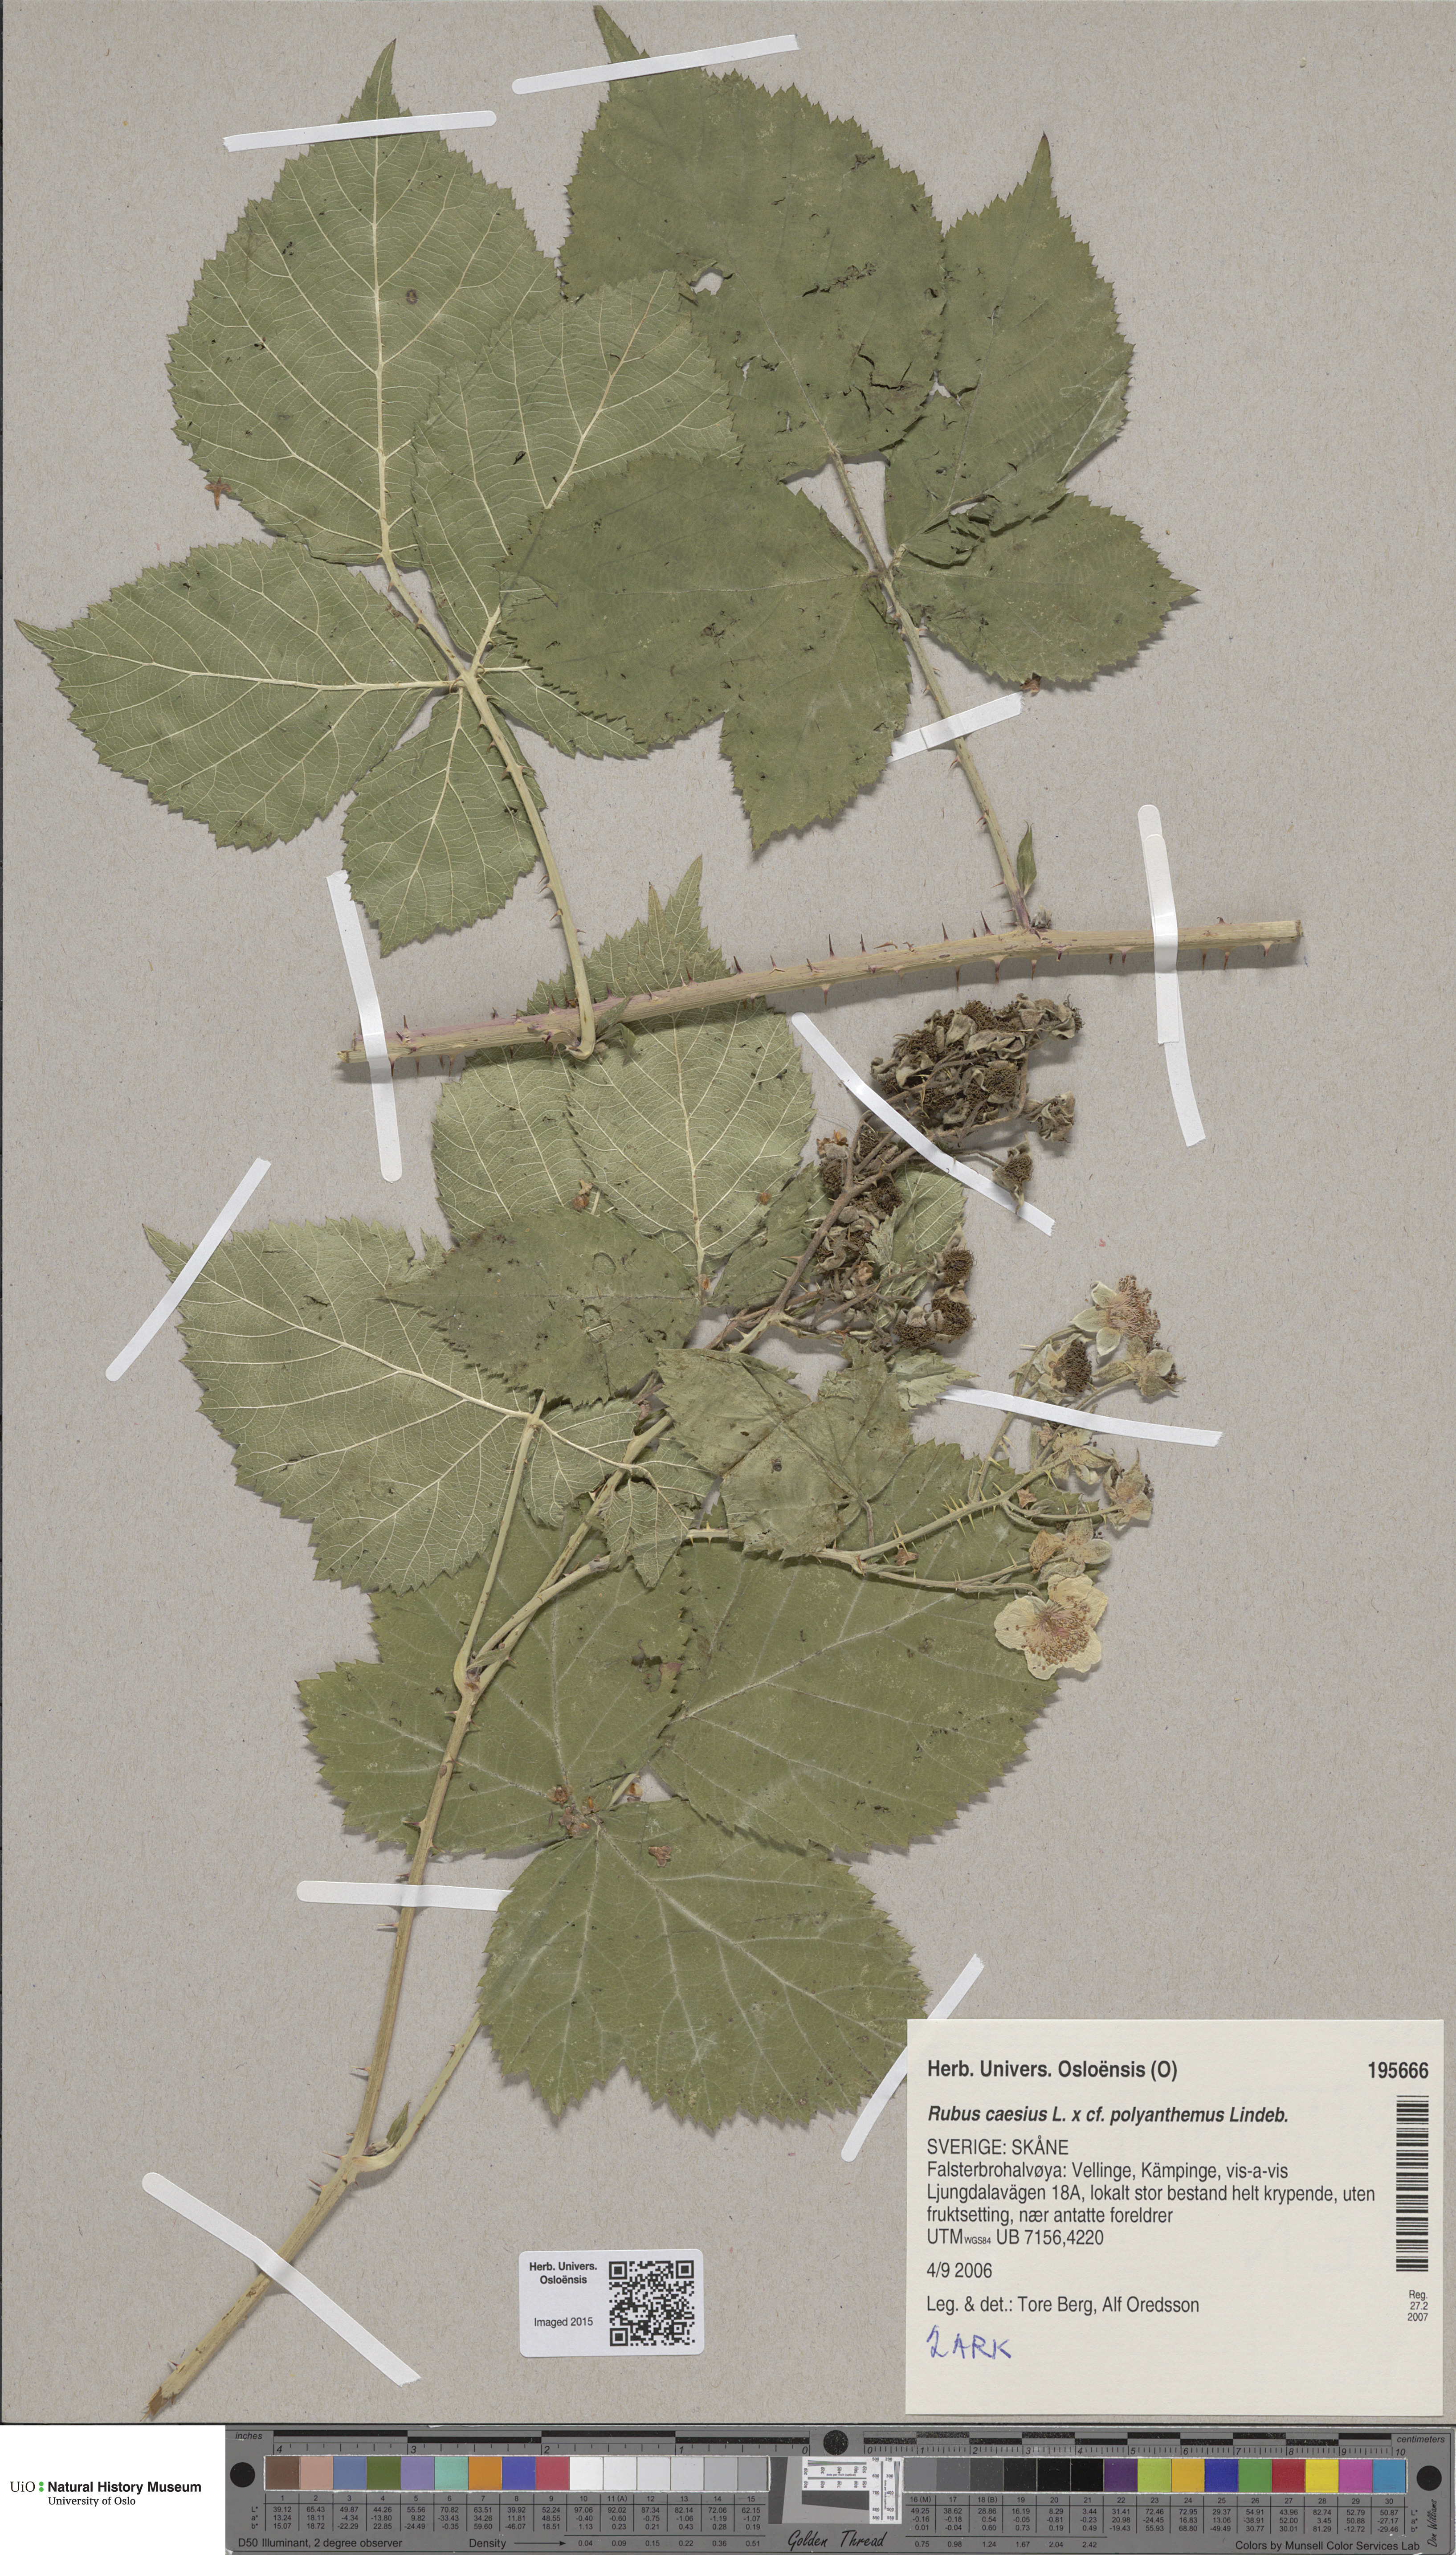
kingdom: Plantae
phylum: Tracheophyta
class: Magnoliopsida
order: Rosales
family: Rosaceae
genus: Rubus
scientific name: Rubus
